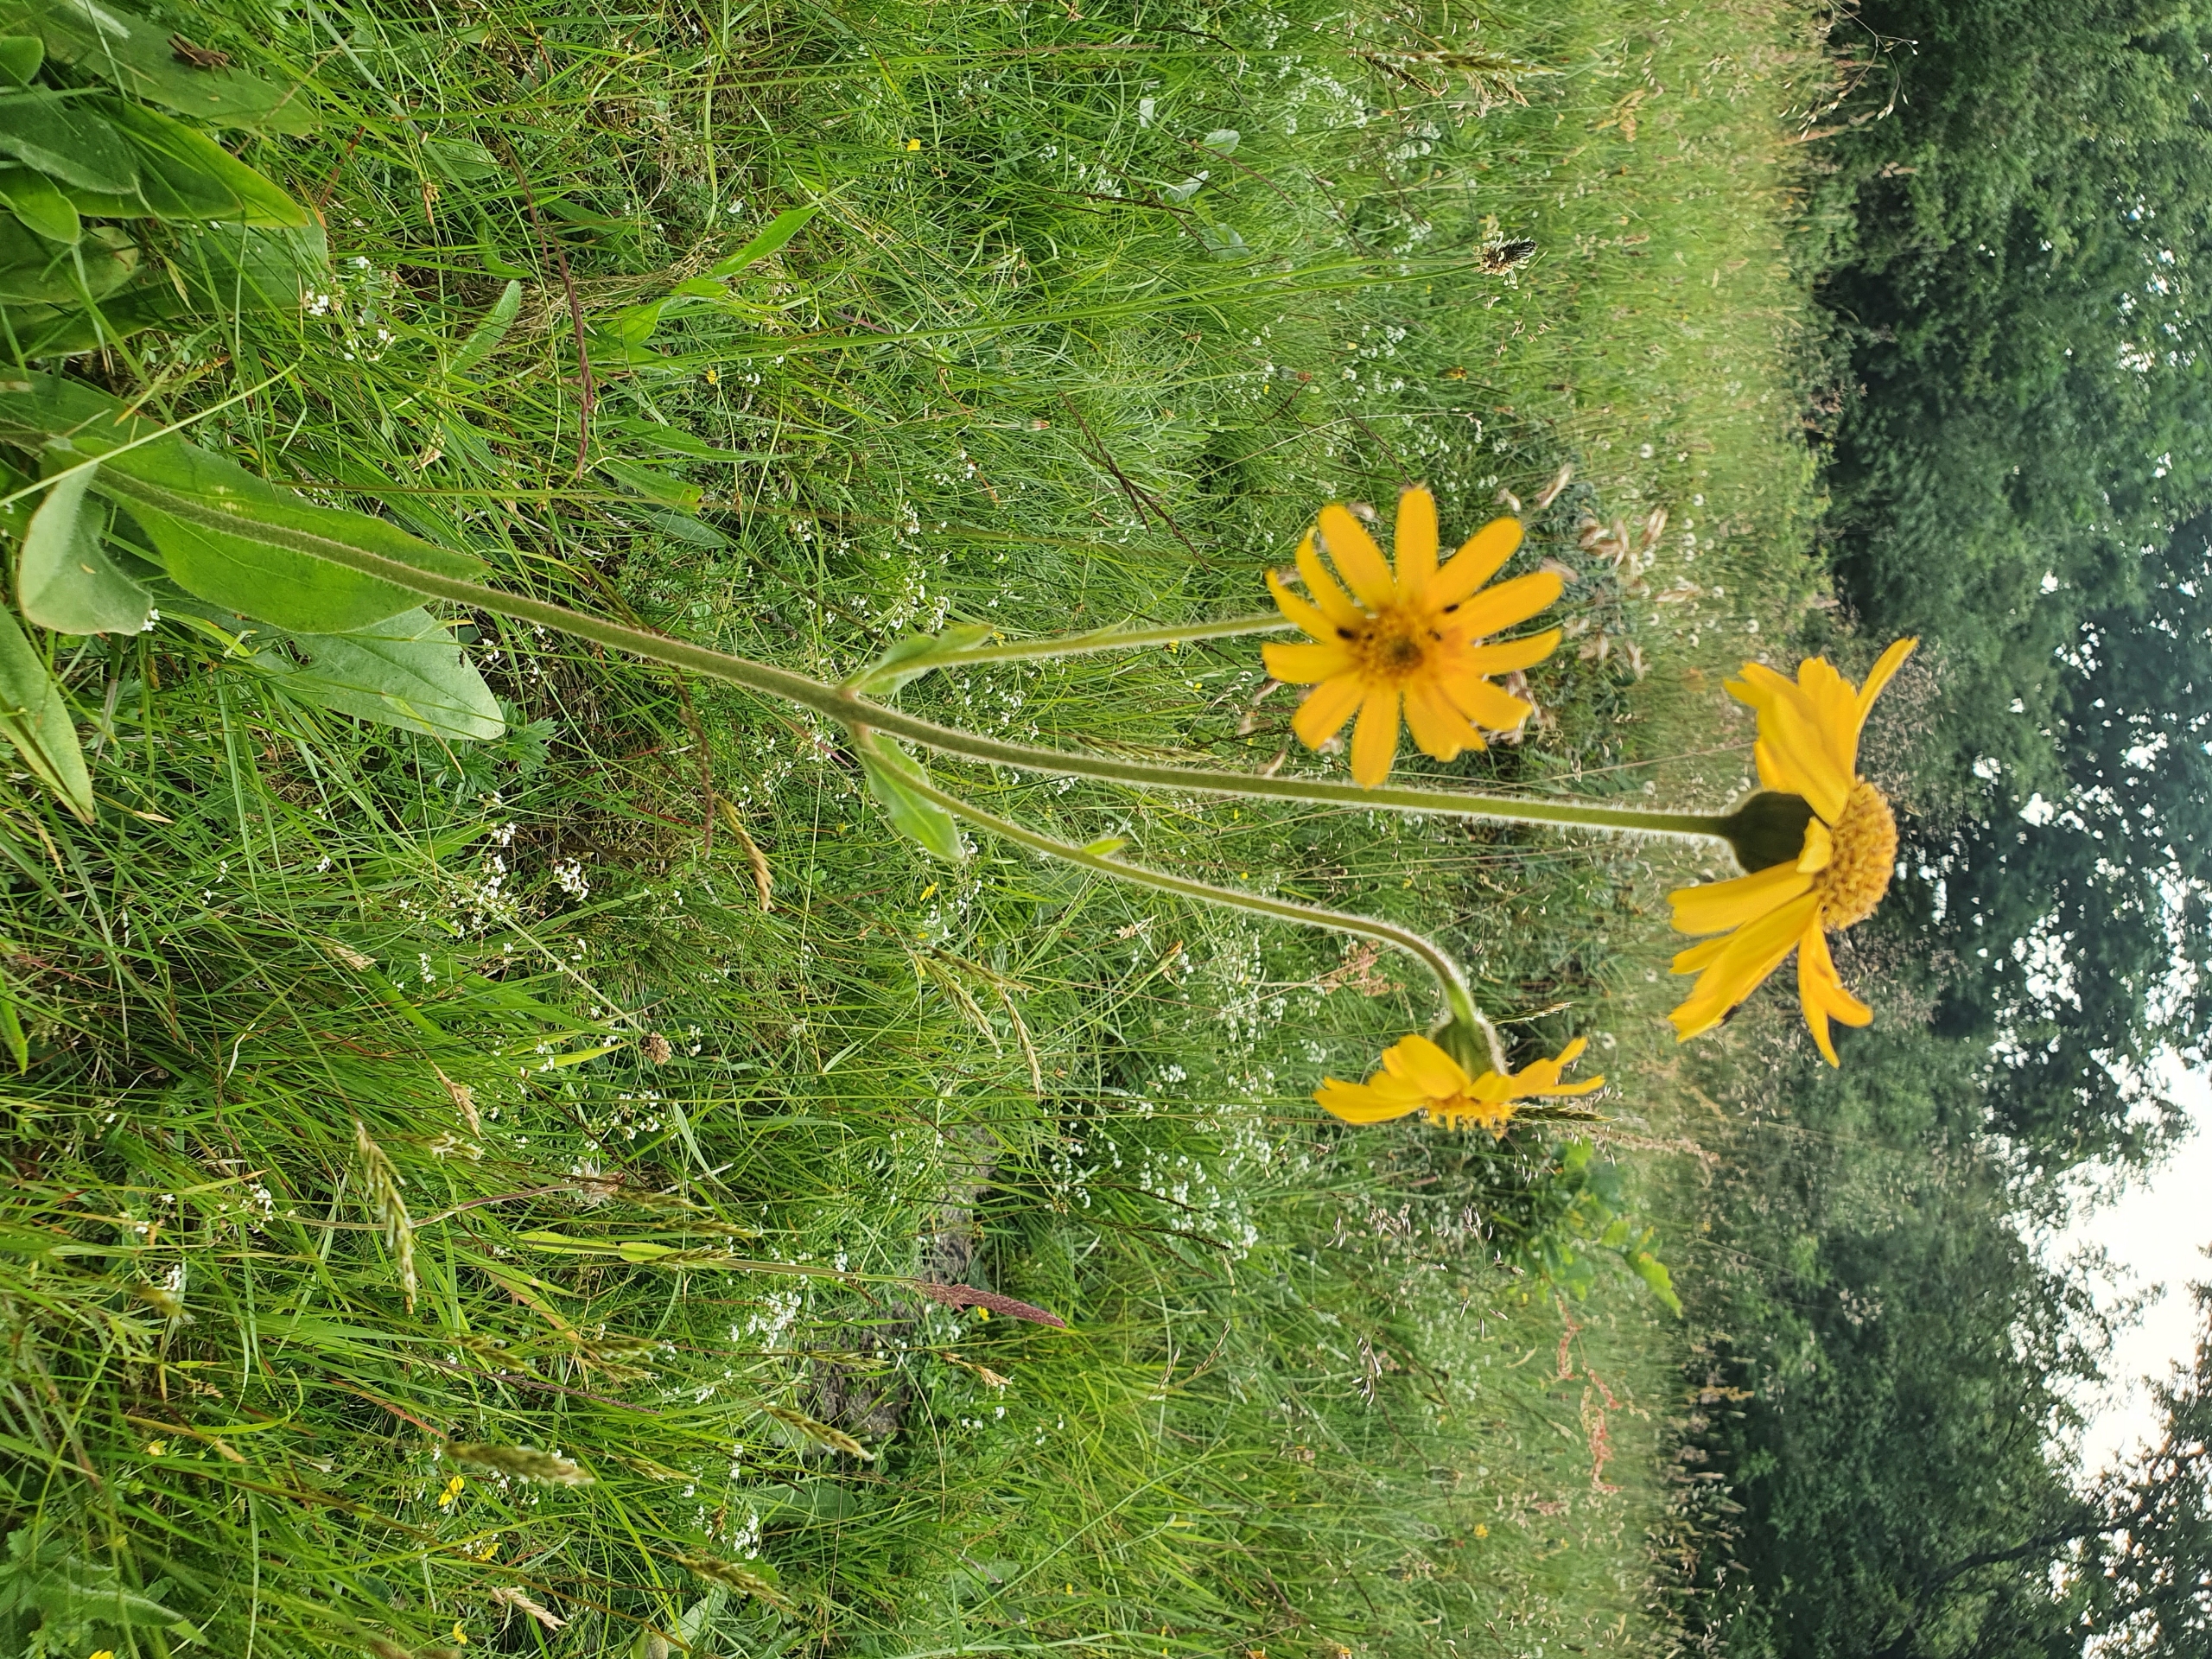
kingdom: Plantae
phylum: Tracheophyta
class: Magnoliopsida
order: Asterales
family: Asteraceae
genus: Arnica
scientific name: Arnica montana
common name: Guldblomme
